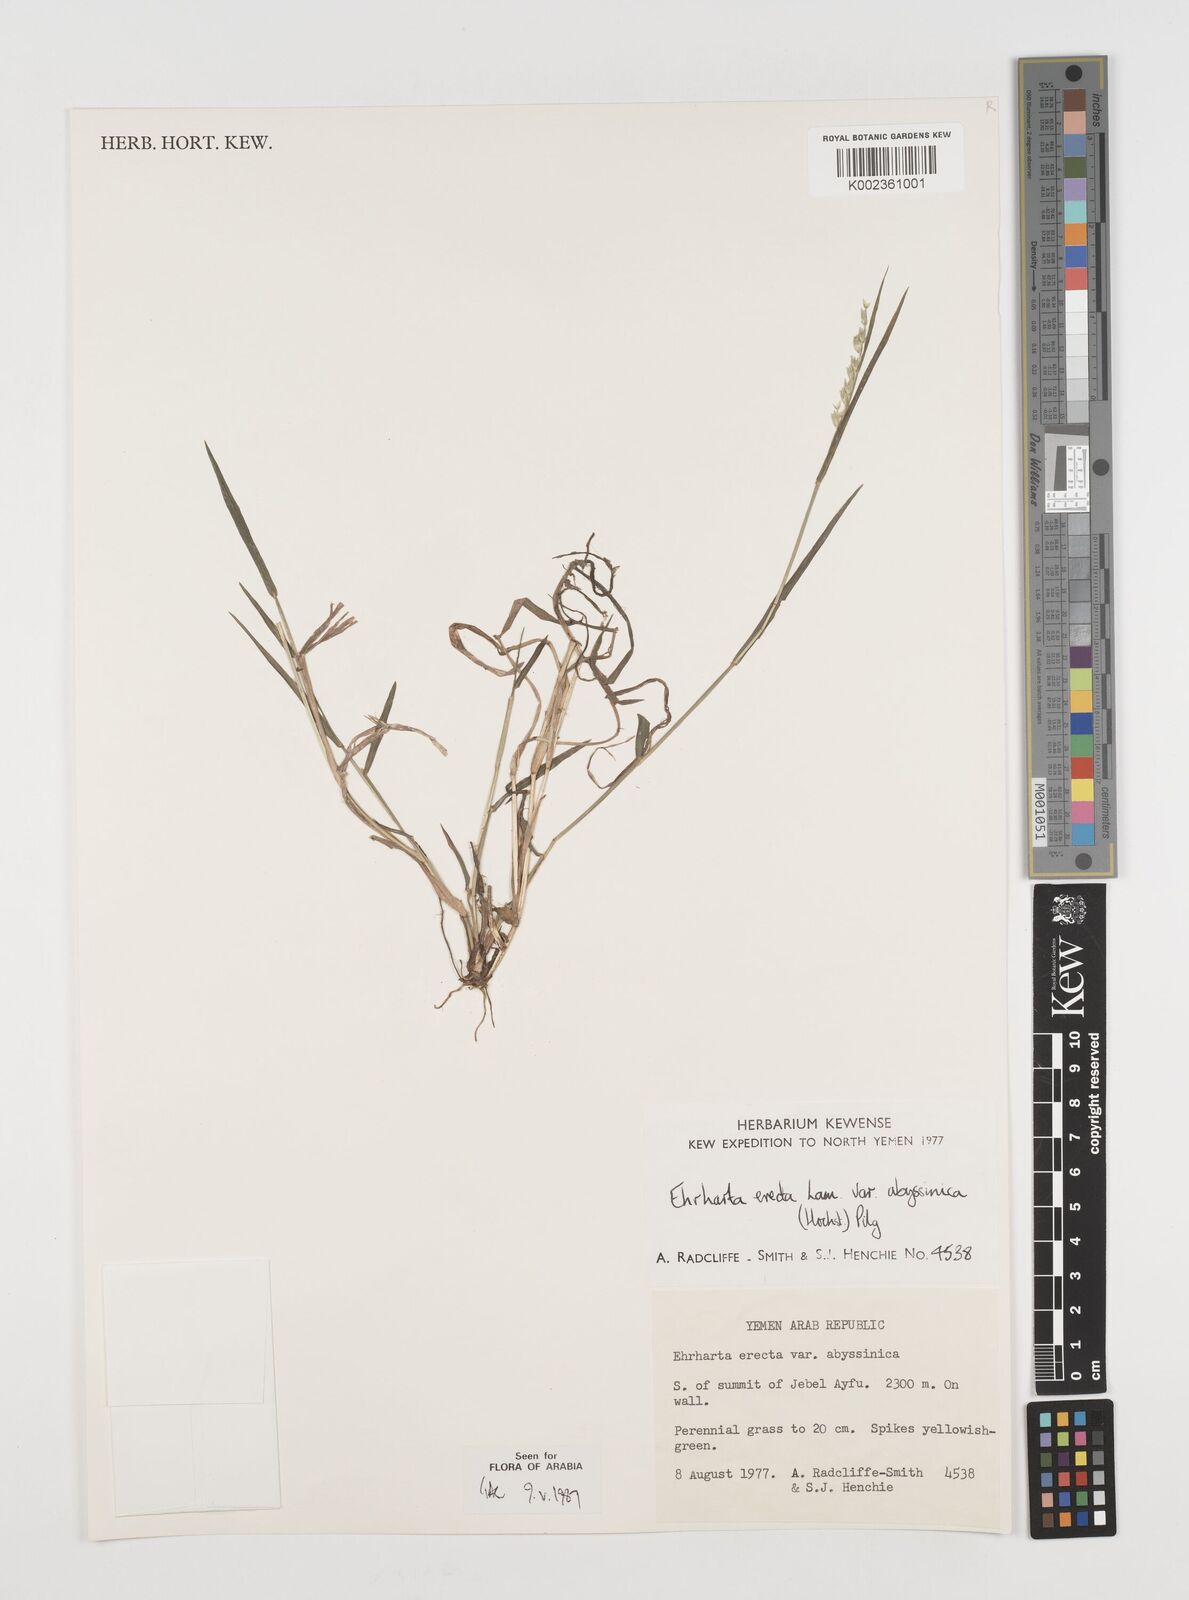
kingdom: Plantae
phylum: Tracheophyta
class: Liliopsida
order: Poales
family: Poaceae
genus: Ehrharta
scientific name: Ehrharta erecta
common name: Panic veldtgrass
